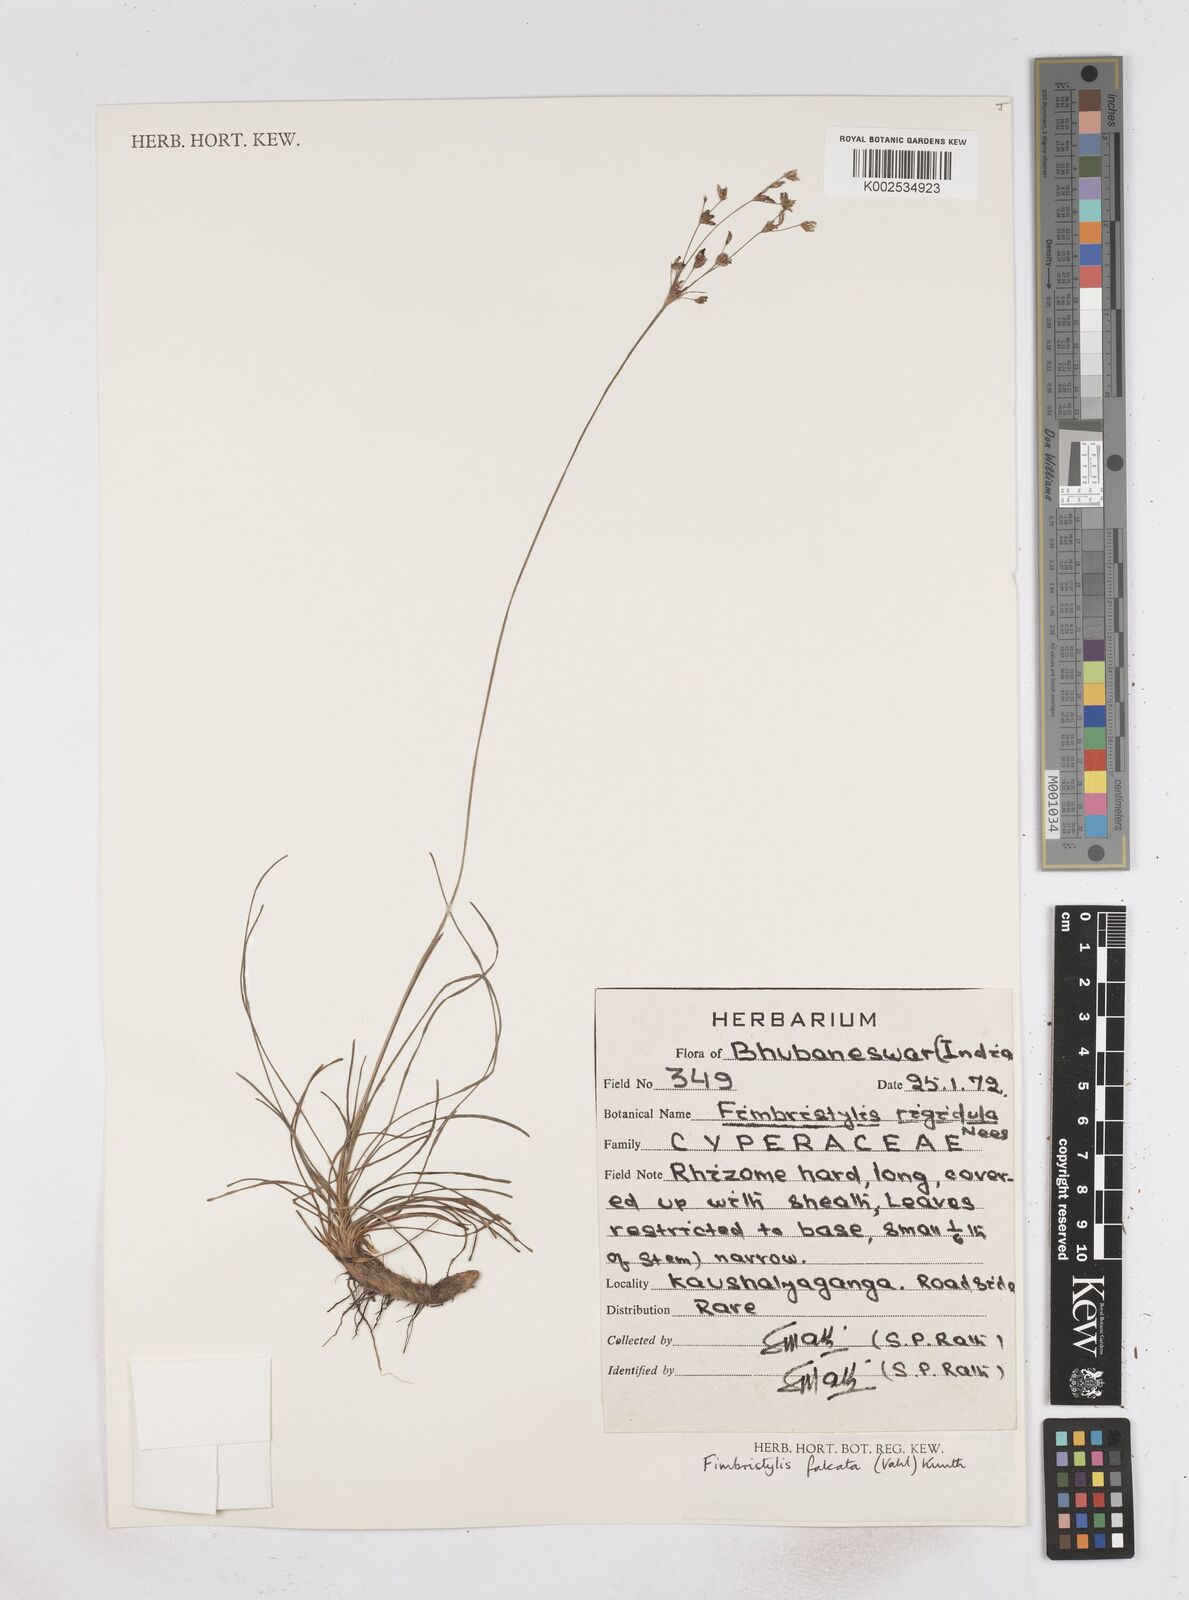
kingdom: Plantae
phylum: Tracheophyta
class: Liliopsida
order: Poales
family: Cyperaceae
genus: Fimbristylis
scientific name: Fimbristylis falcata
